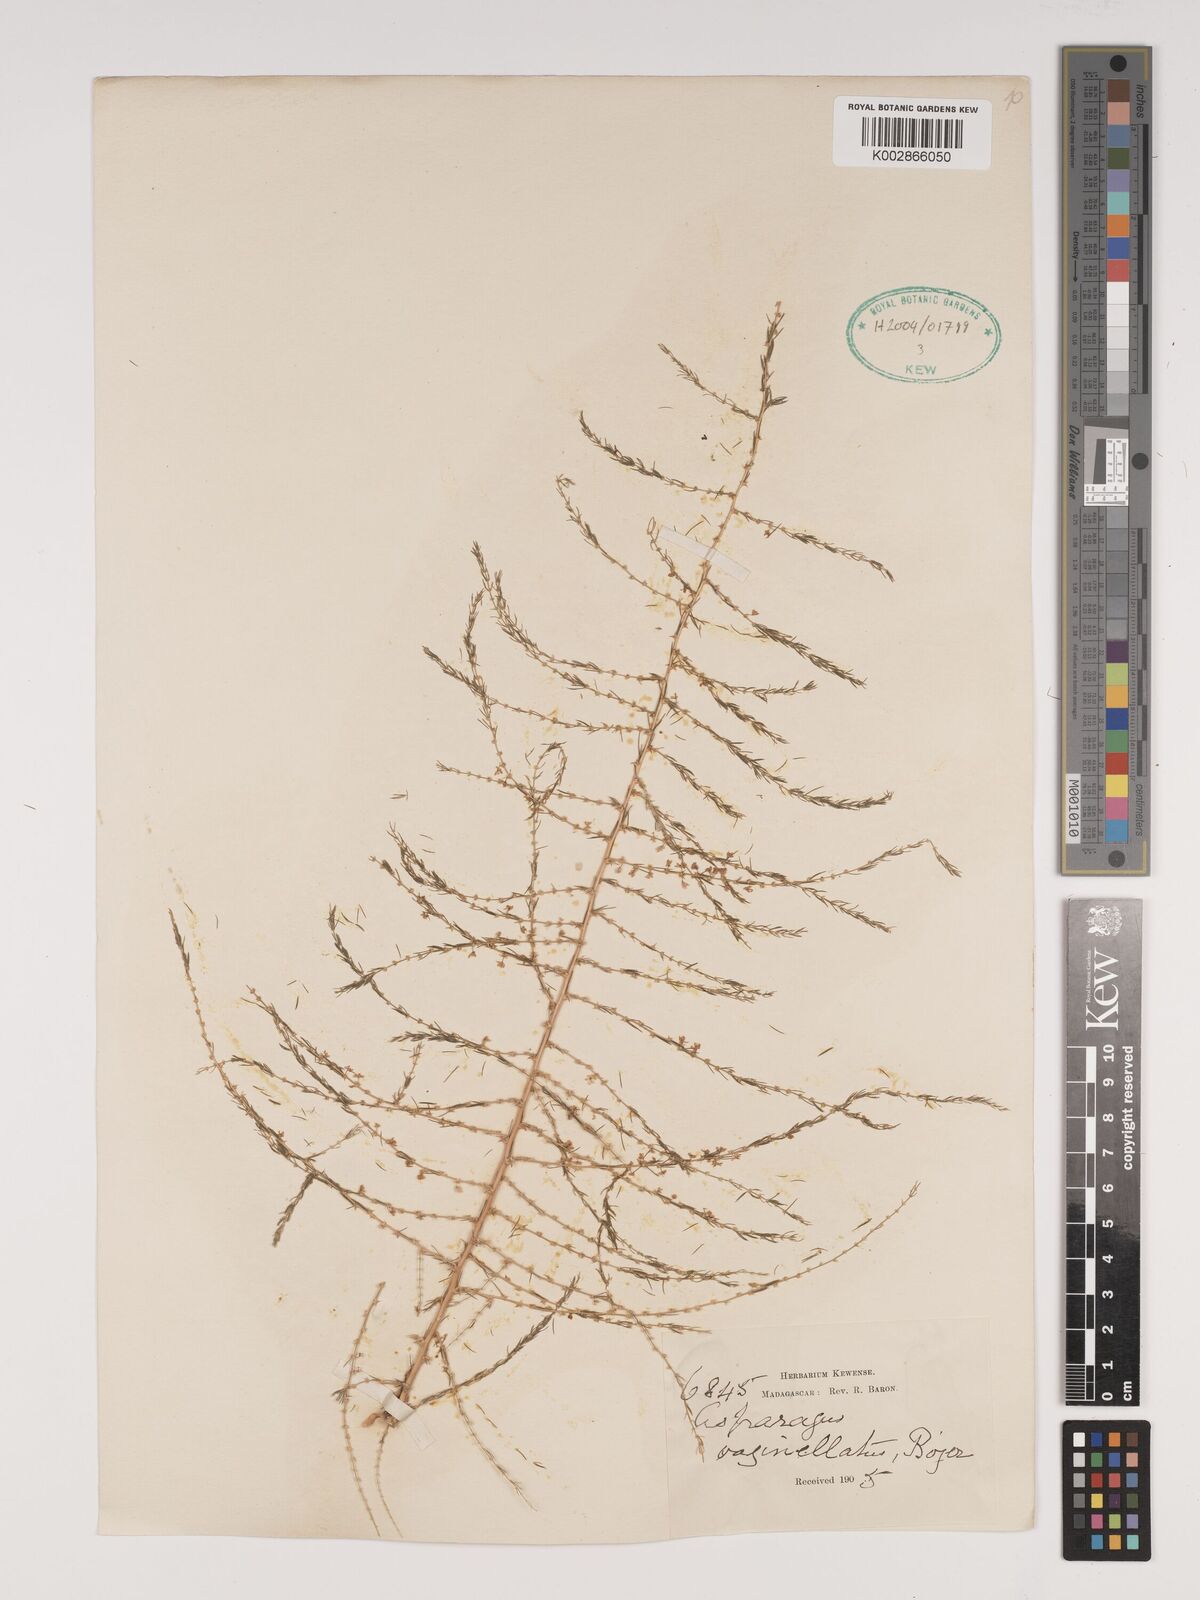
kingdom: Plantae
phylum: Tracheophyta
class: Liliopsida
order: Asparagales
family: Asparagaceae
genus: Asparagus
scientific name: Asparagus vaginellatus
